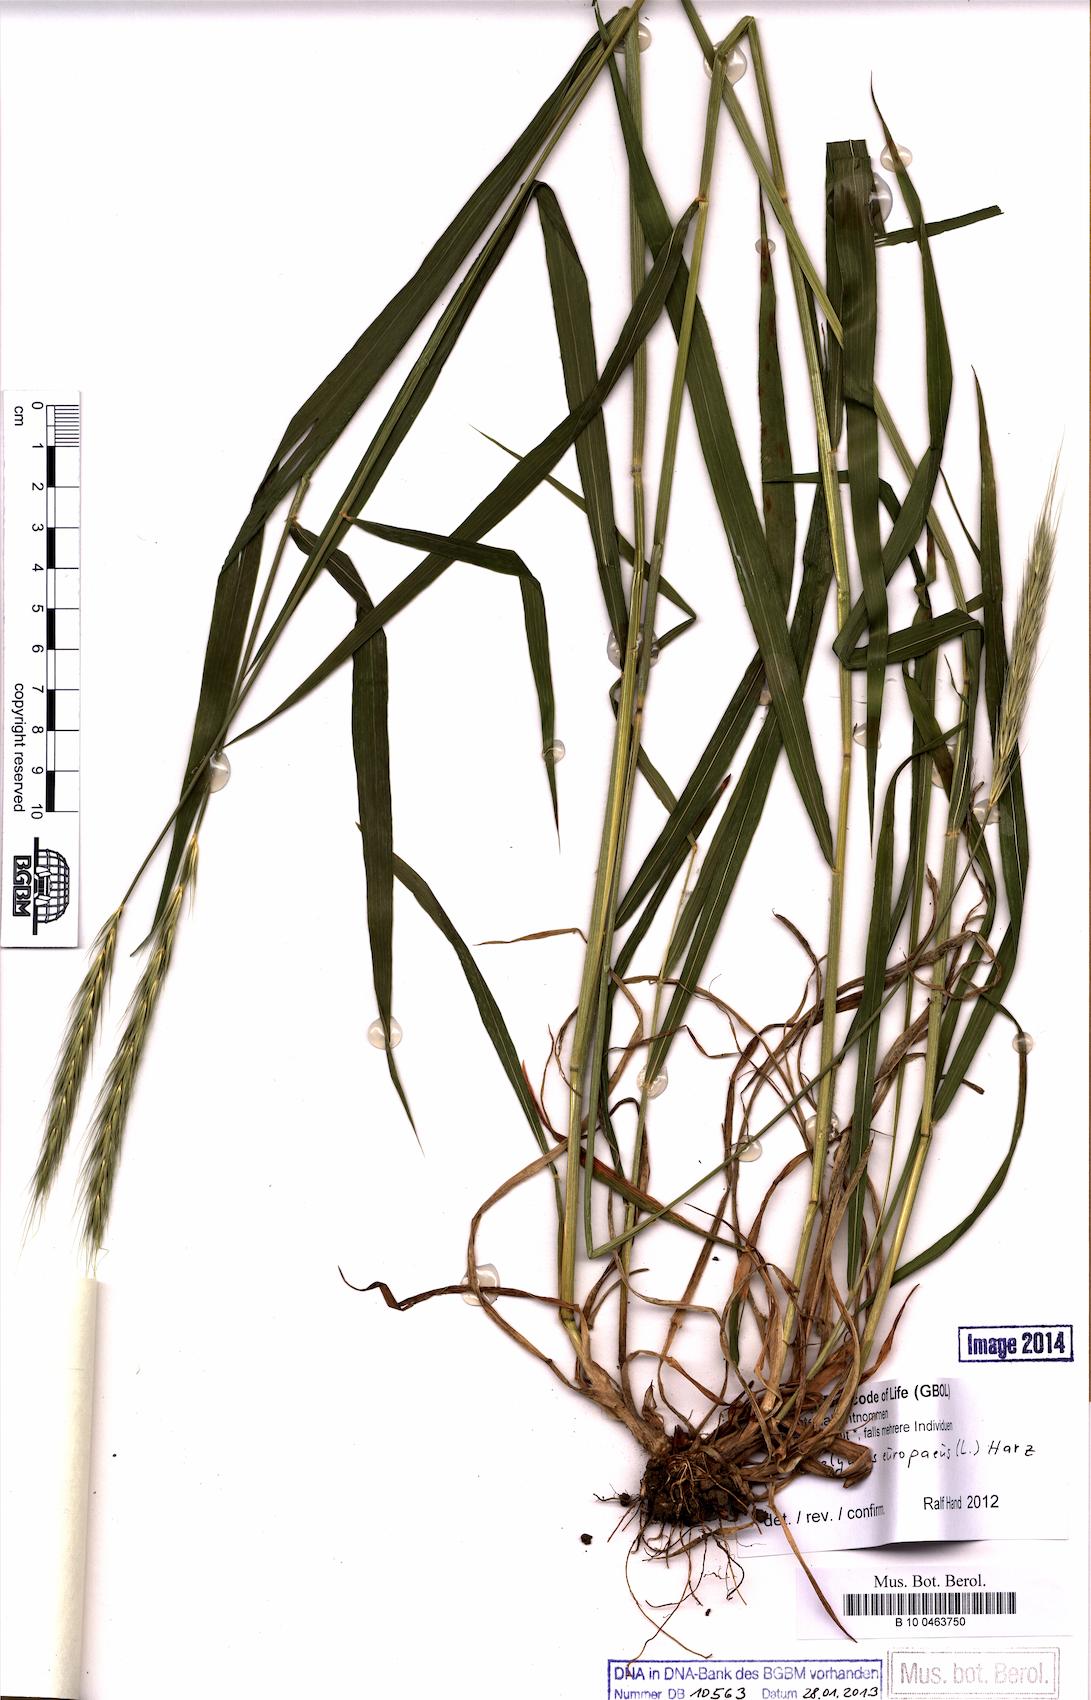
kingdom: Plantae
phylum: Tracheophyta
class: Liliopsida
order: Poales
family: Poaceae
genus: Hordelymus
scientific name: Hordelymus europaeus
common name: Wood-barley
